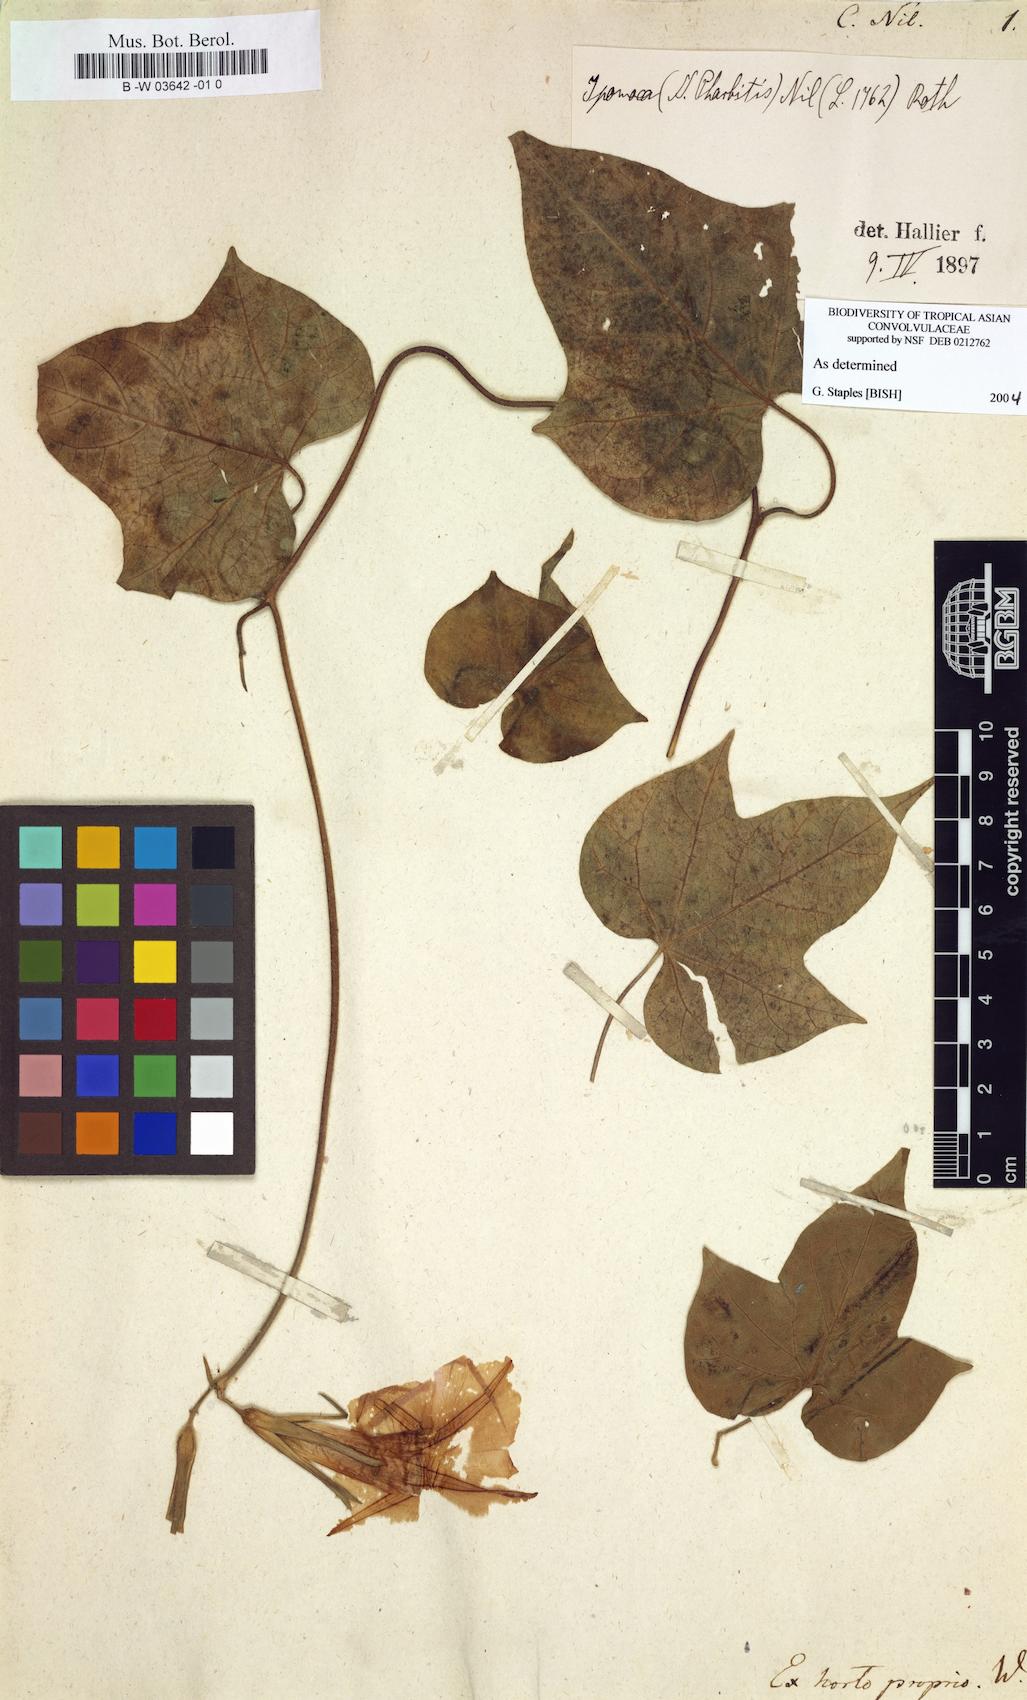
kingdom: Plantae
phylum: Tracheophyta
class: Magnoliopsida
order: Solanales
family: Convolvulaceae
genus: Ipomoea
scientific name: Ipomoea nil
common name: Japanese morning-glory
